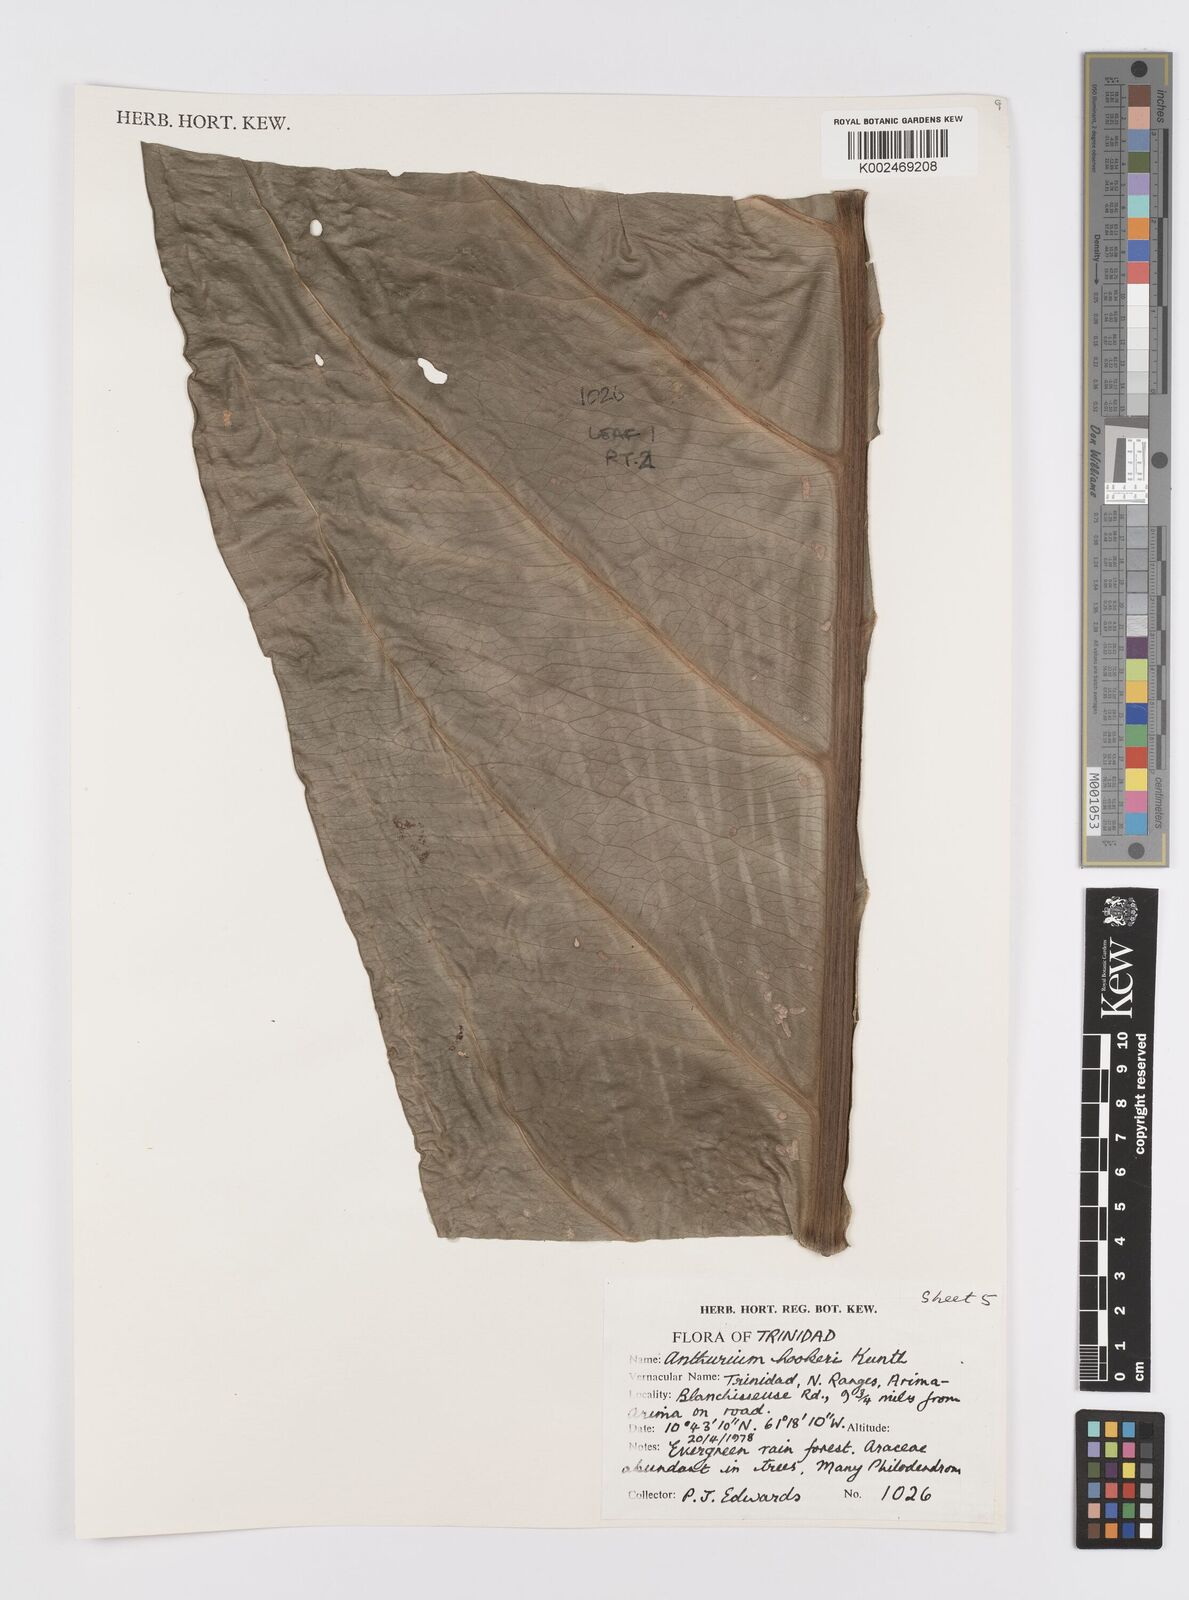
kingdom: Plantae
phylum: Tracheophyta
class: Liliopsida
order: Alismatales
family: Araceae
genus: Anthurium
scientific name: Anthurium hookeri
